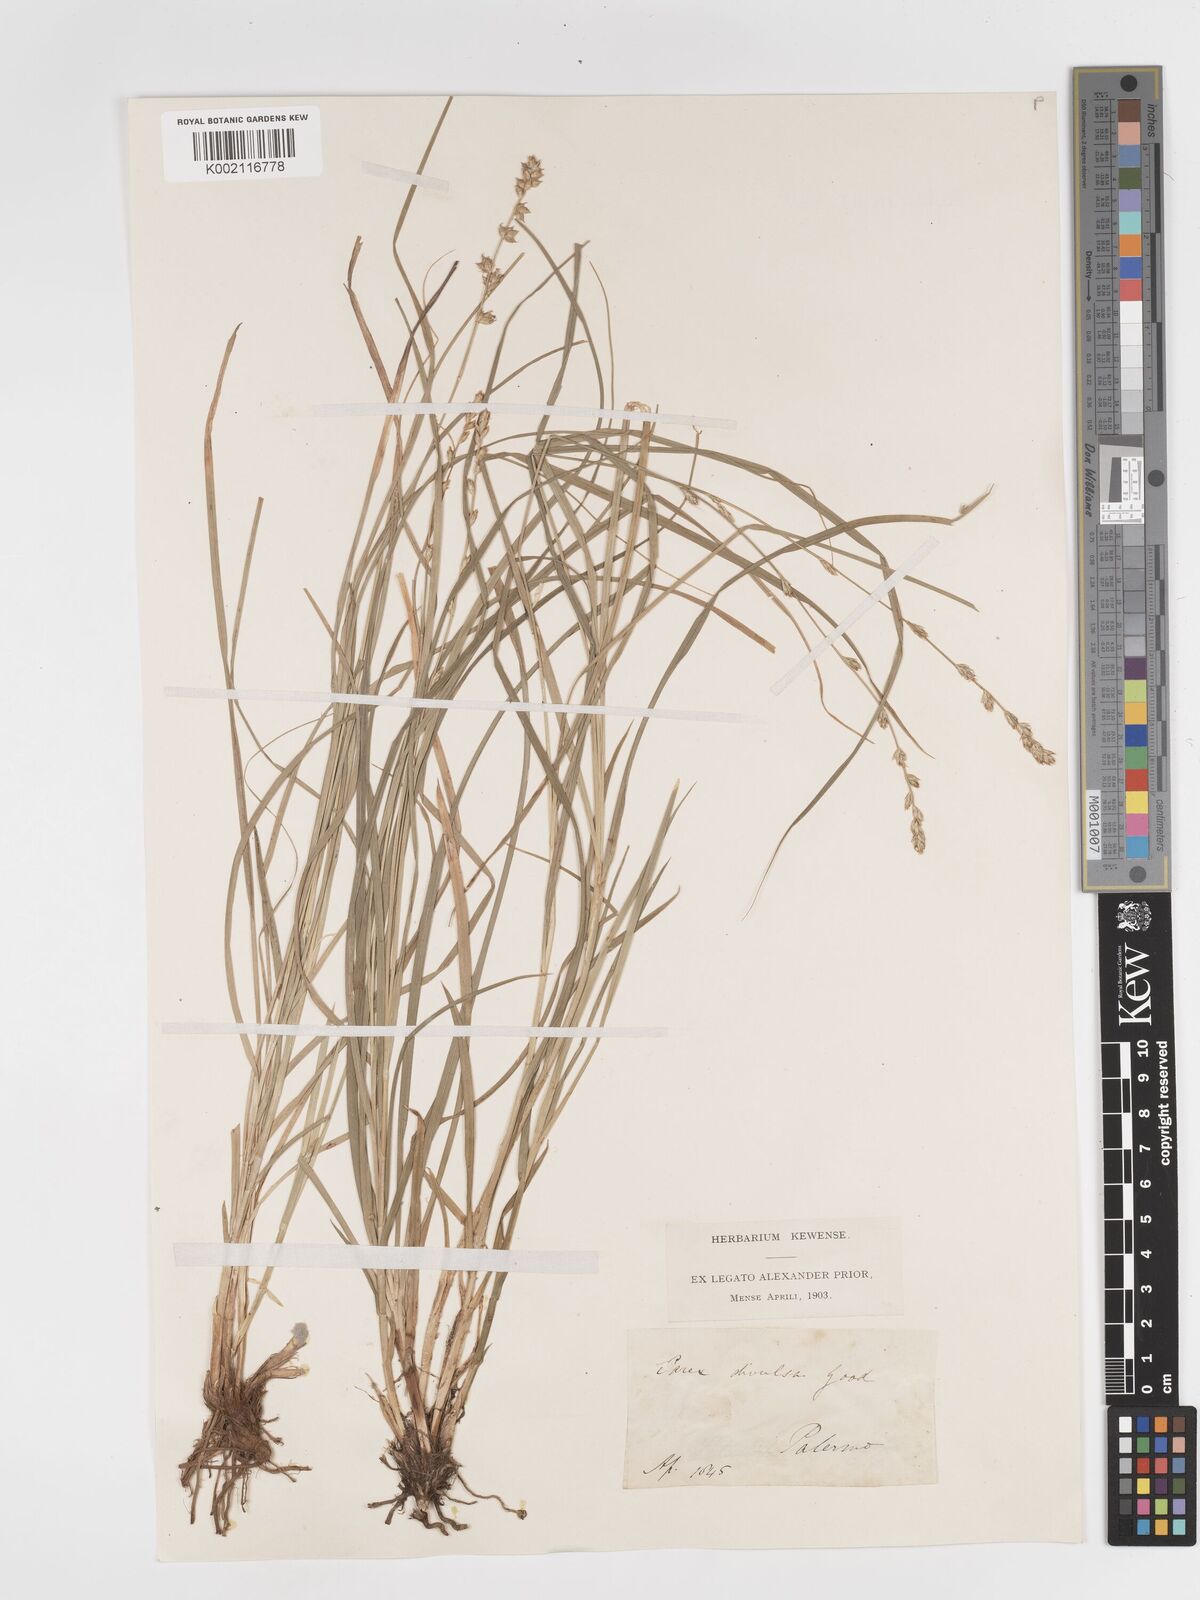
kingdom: Plantae
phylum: Tracheophyta
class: Liliopsida
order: Poales
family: Cyperaceae
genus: Carex
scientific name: Carex divulsa
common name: Grassland sedge
